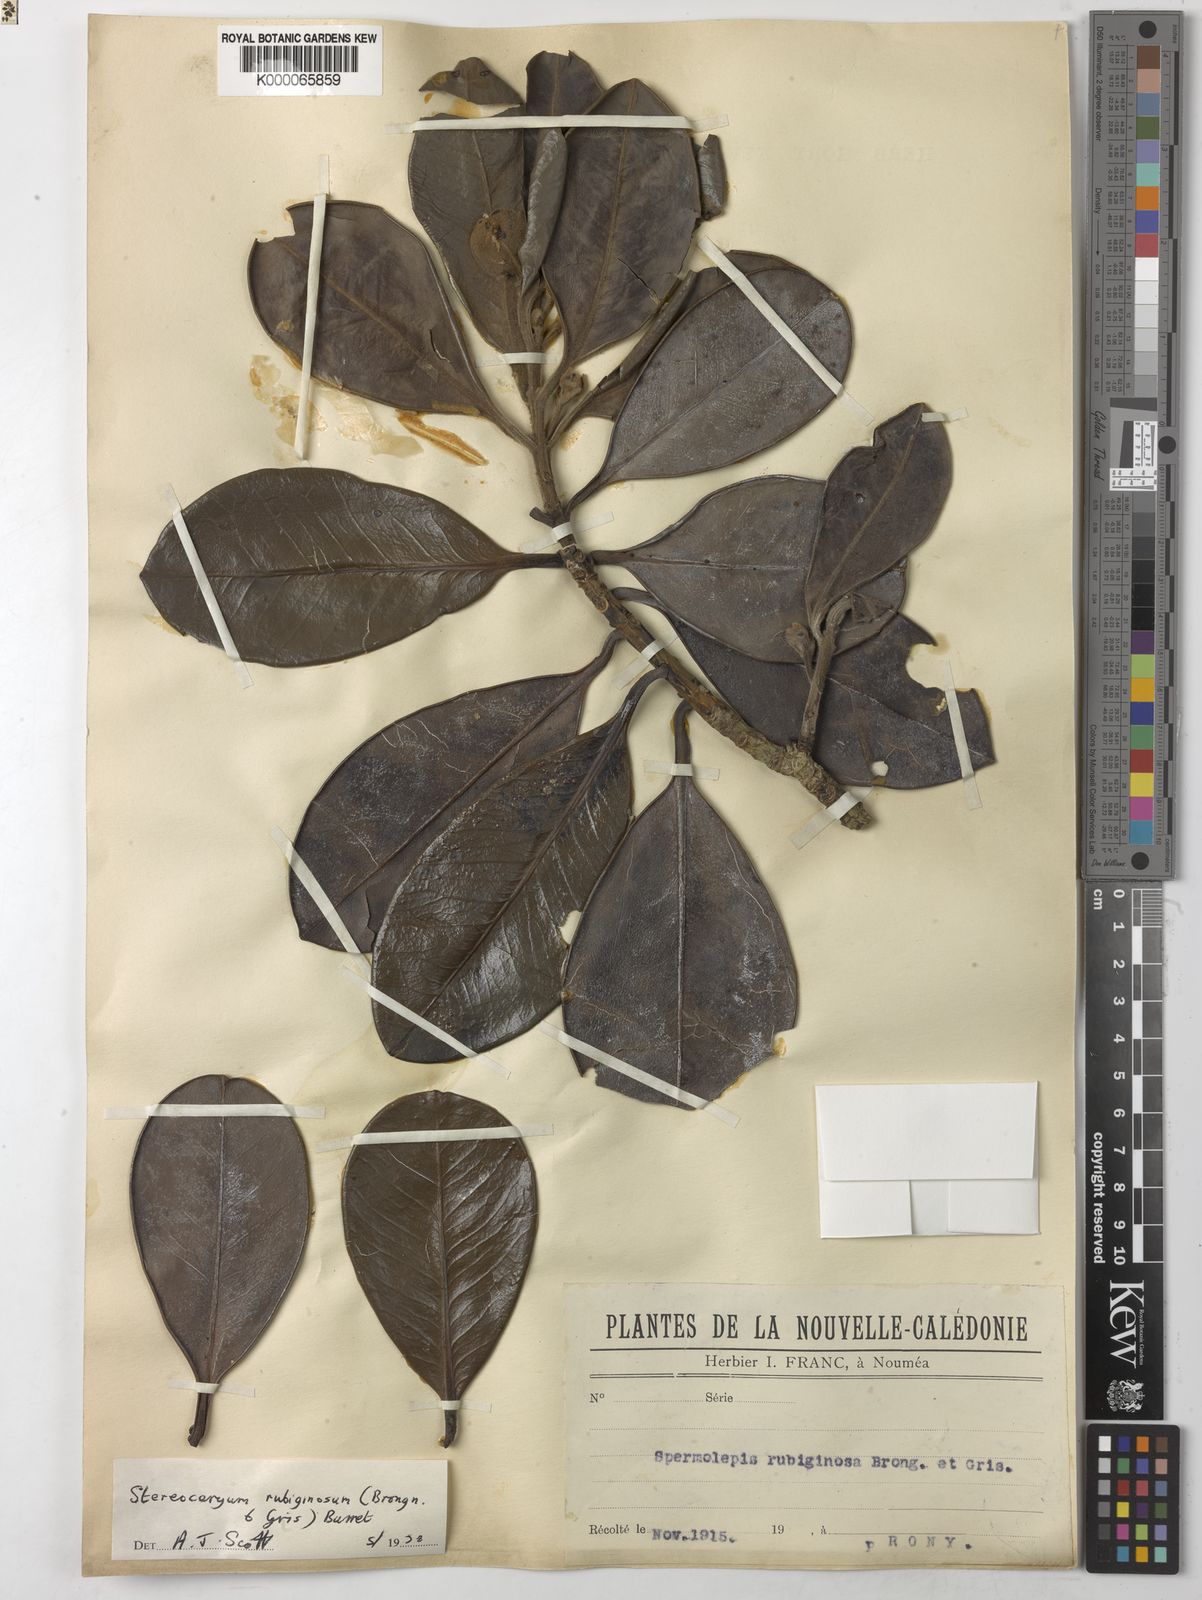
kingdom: Plantae
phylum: Tracheophyta
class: Magnoliopsida
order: Myrtales
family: Myrtaceae
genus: Eugenia
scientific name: Eugenia veillonii
